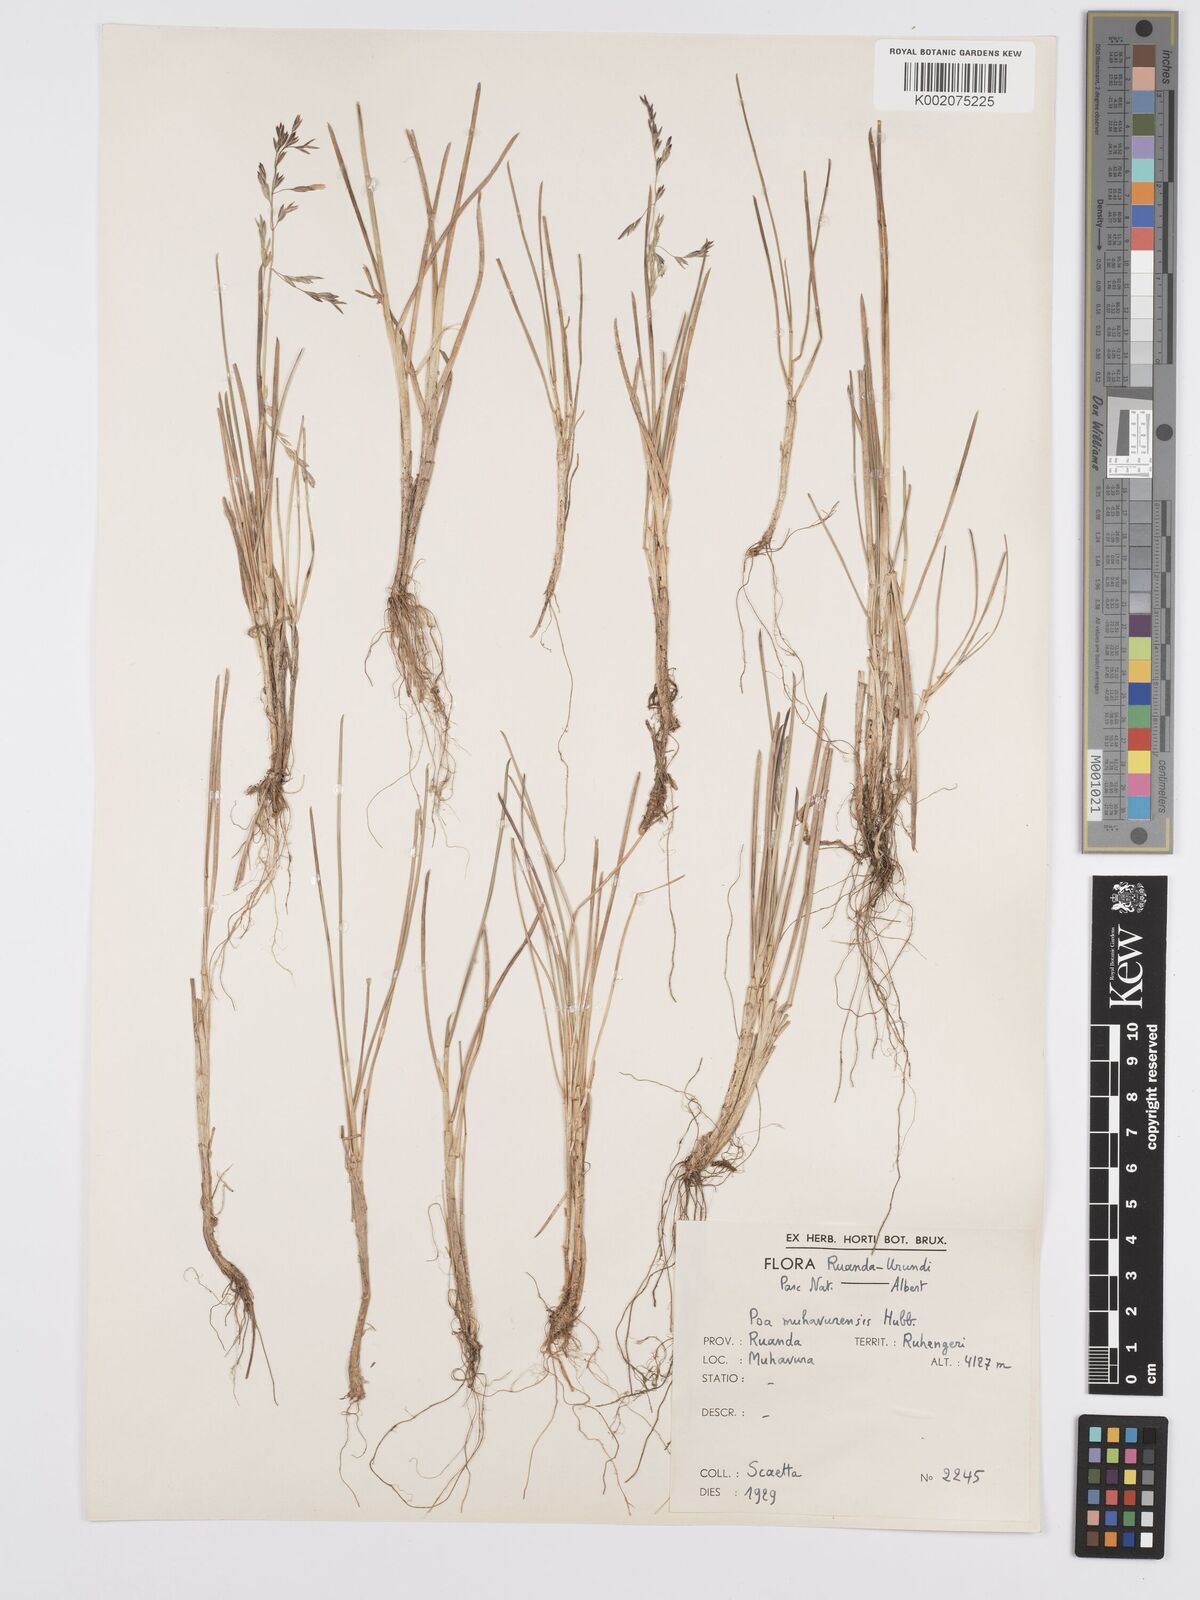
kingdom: Plantae
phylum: Tracheophyta
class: Liliopsida
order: Poales
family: Poaceae
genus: Poa
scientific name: Poa schimperiana
